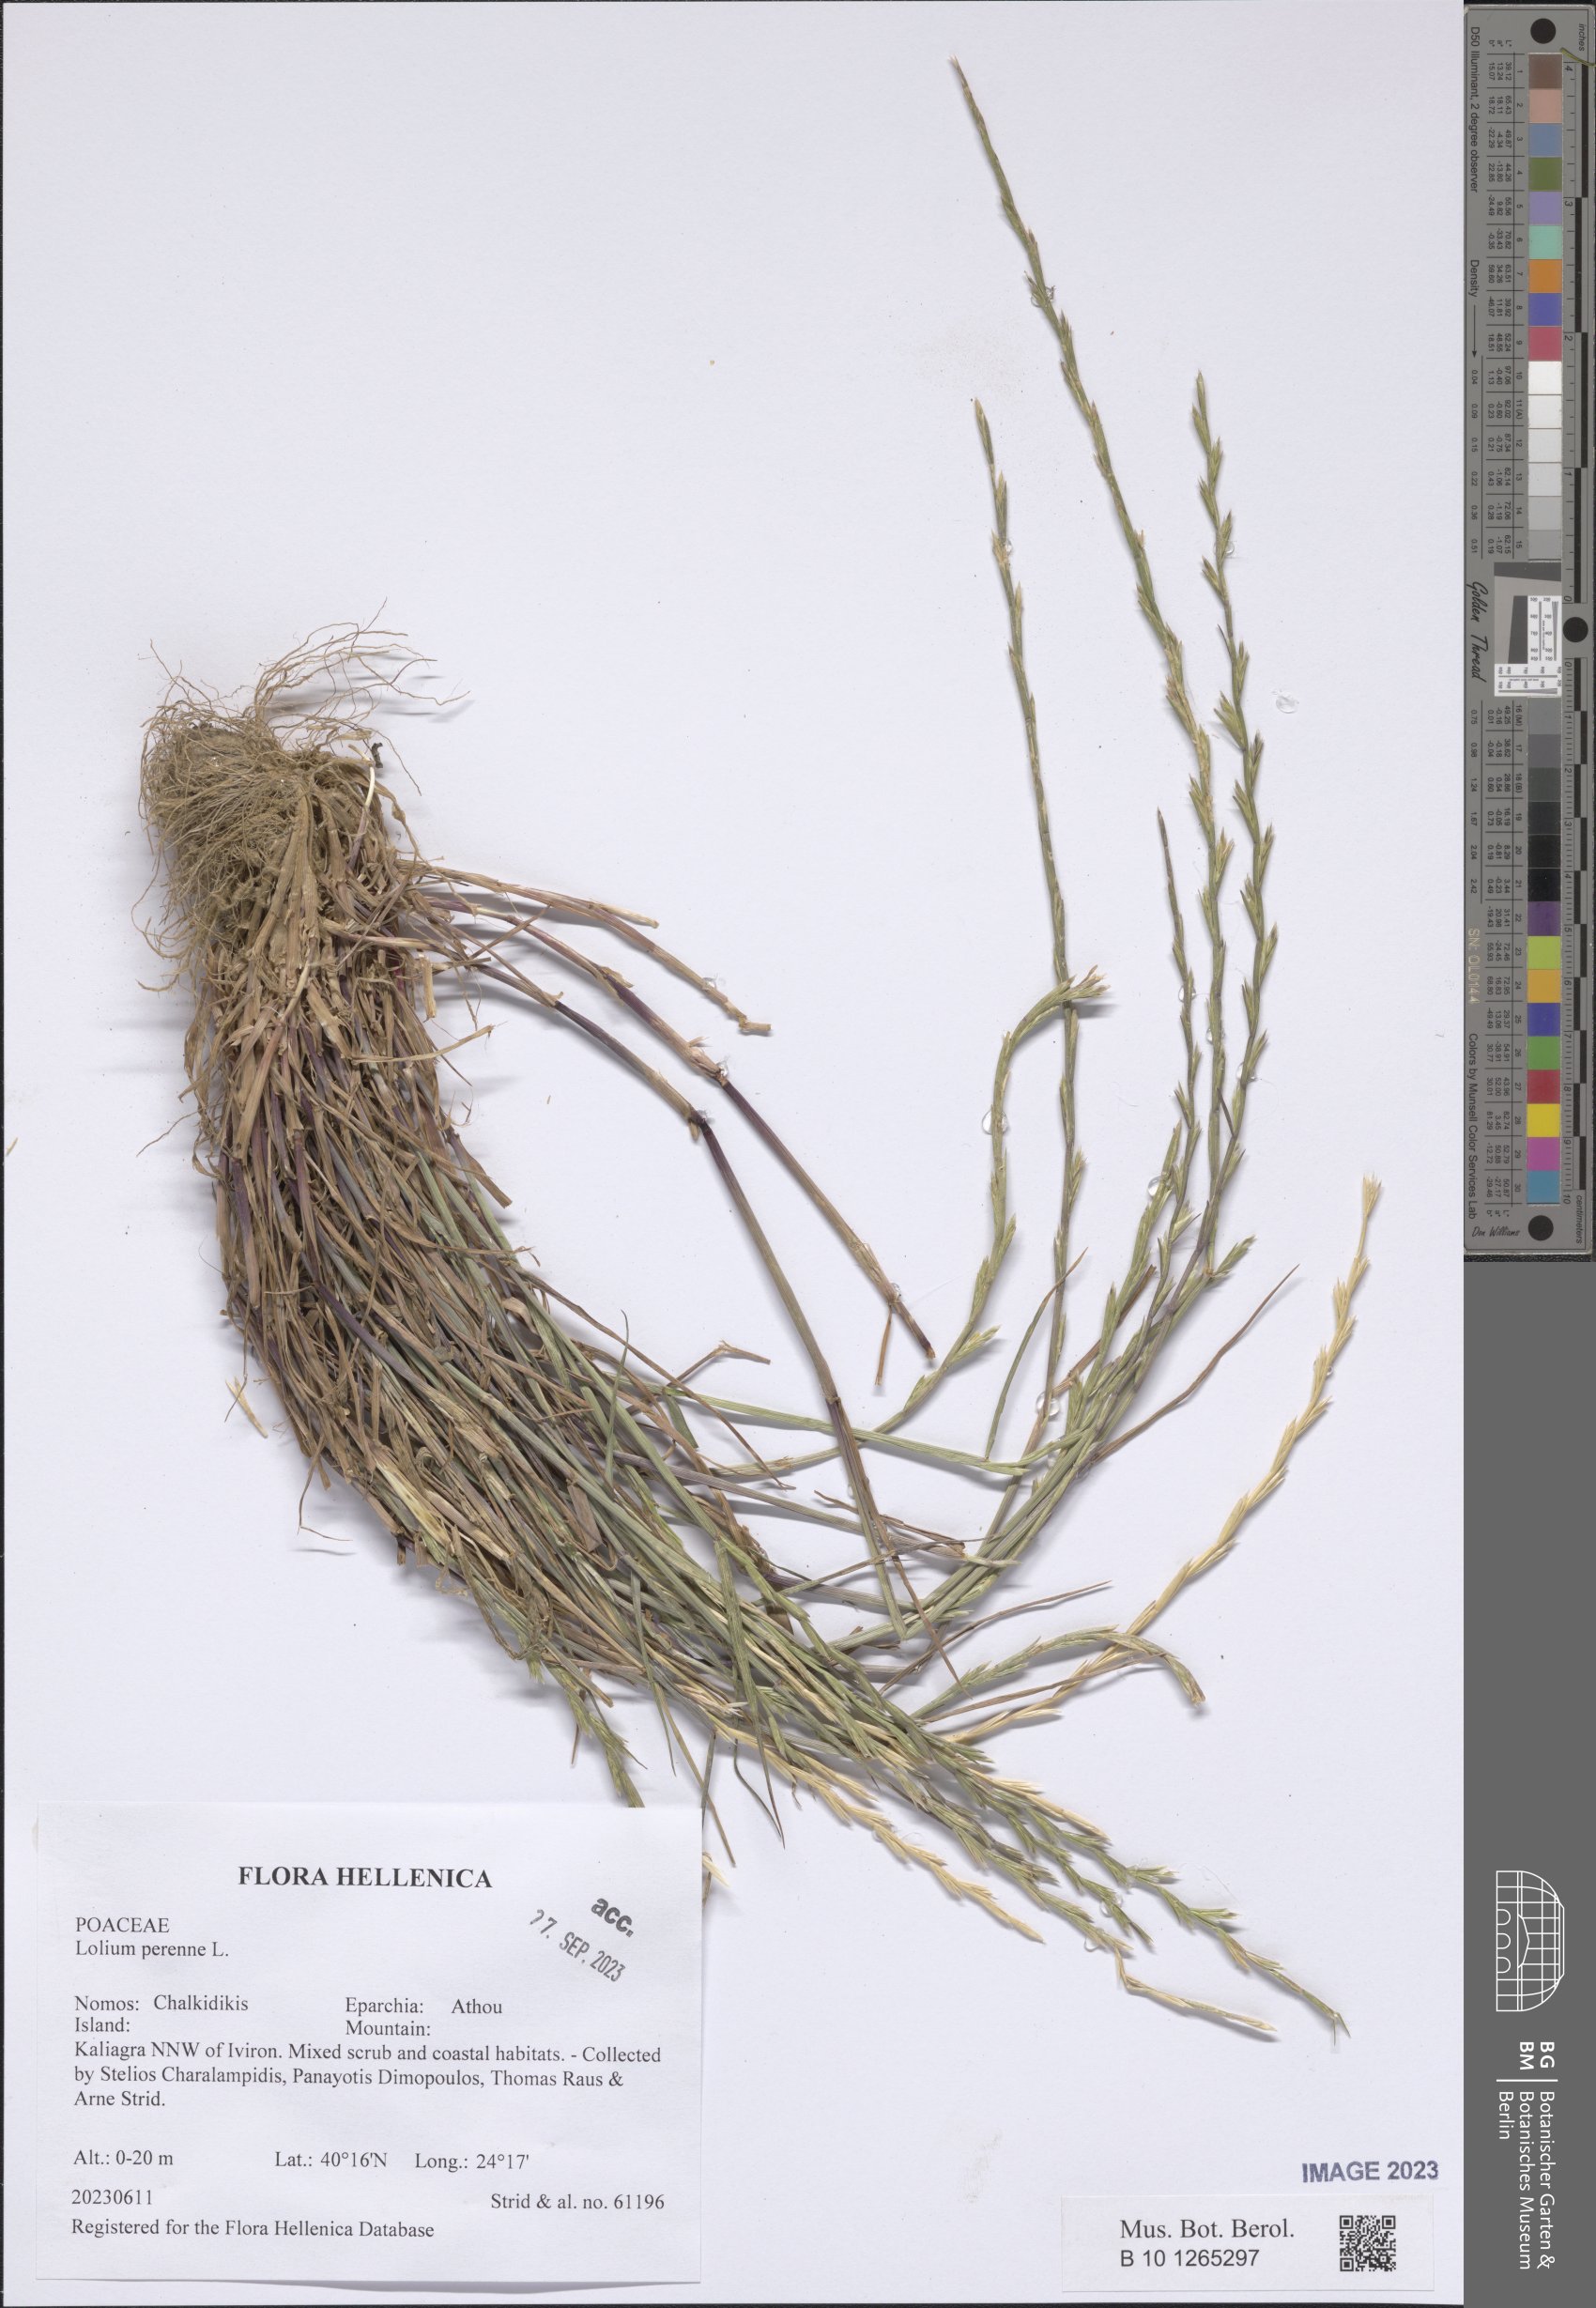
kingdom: Plantae
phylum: Tracheophyta
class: Liliopsida
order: Poales
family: Poaceae
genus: Lolium
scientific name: Lolium perenne
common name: Perennial ryegrass
